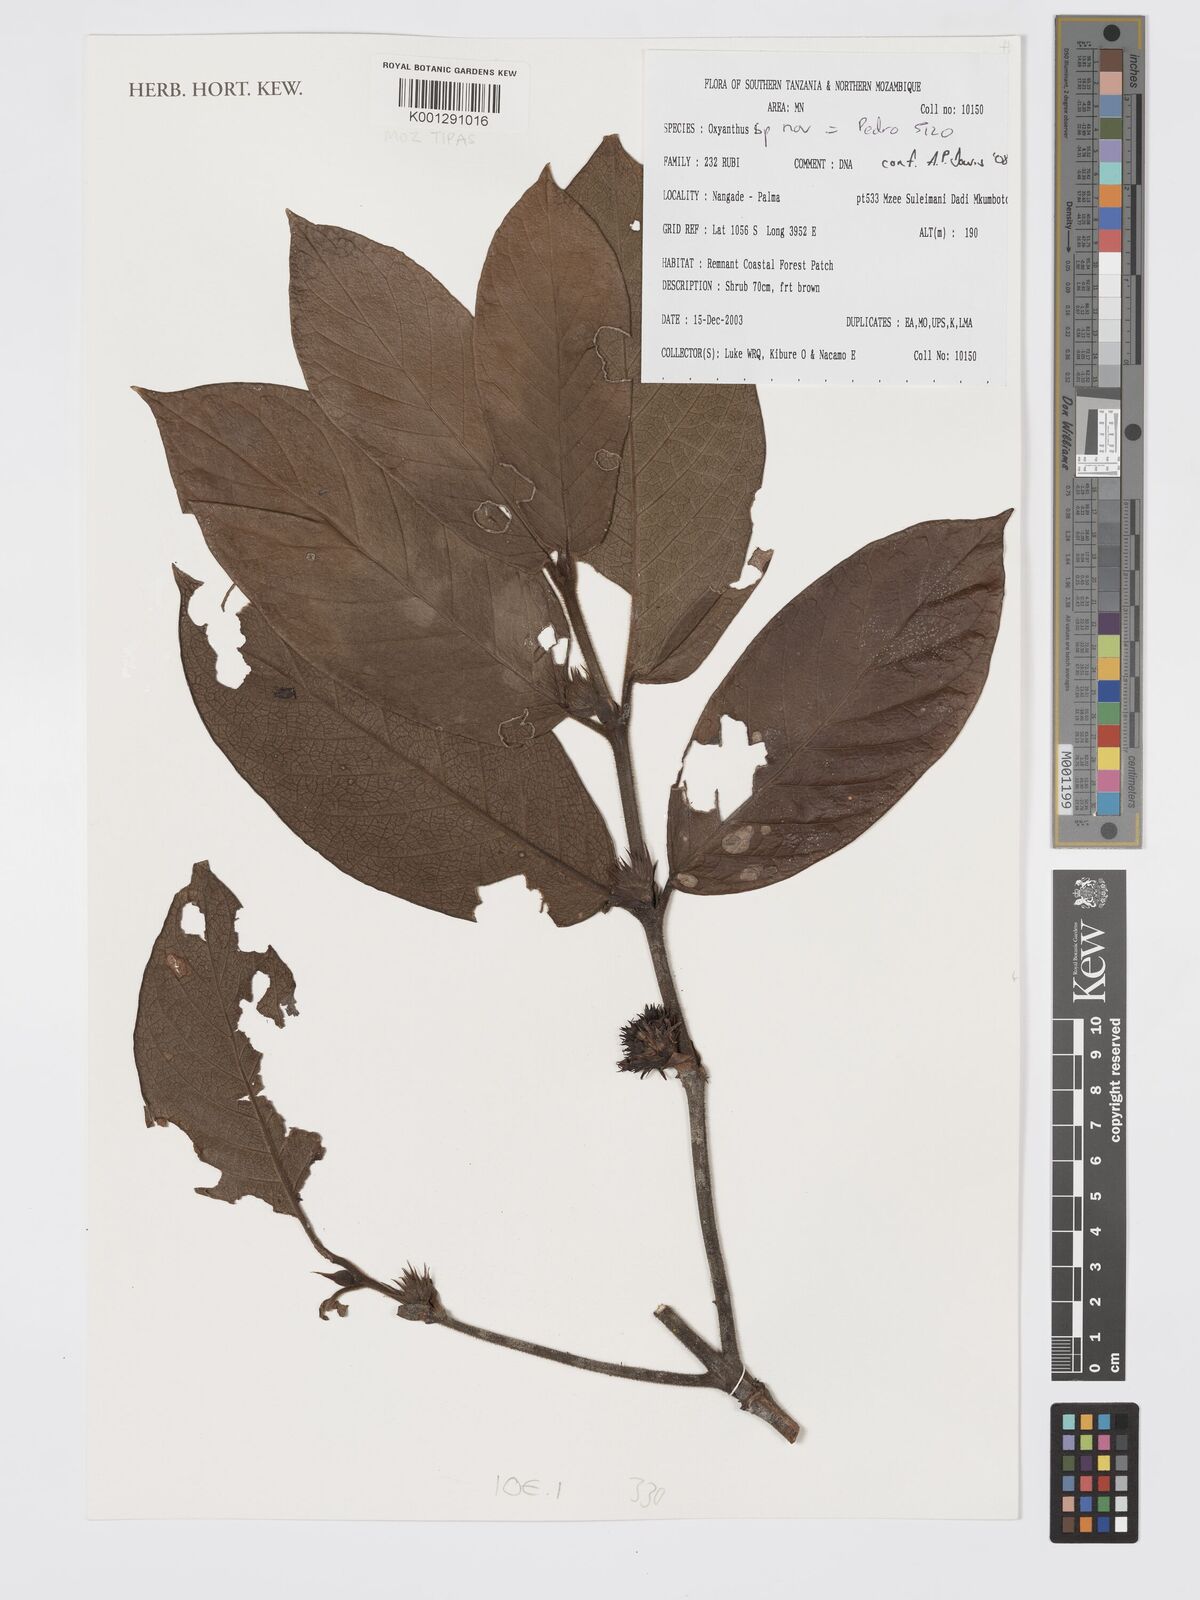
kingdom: Plantae
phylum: Tracheophyta
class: Magnoliopsida
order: Gentianales
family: Rubiaceae
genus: Oxyanthus
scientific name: Oxyanthus
